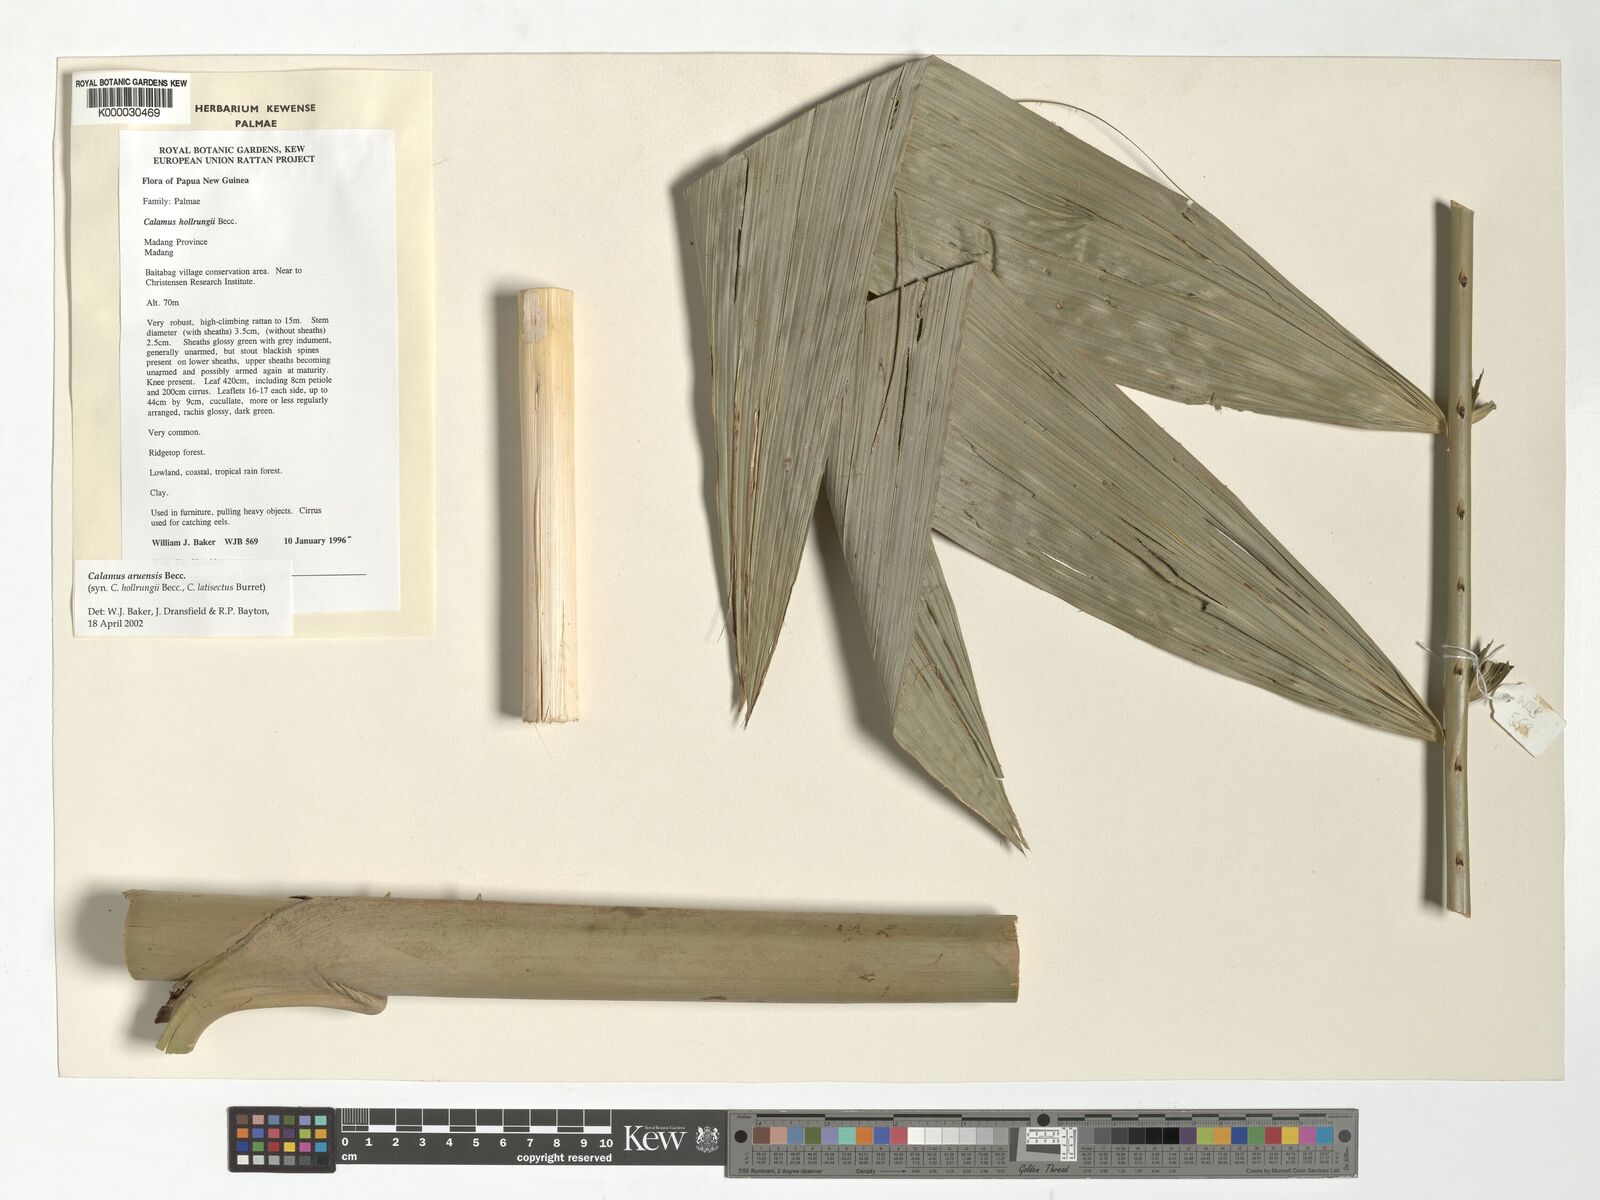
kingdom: Plantae
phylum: Tracheophyta
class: Liliopsida
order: Arecales
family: Arecaceae
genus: Calamus
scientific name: Calamus aruensis
